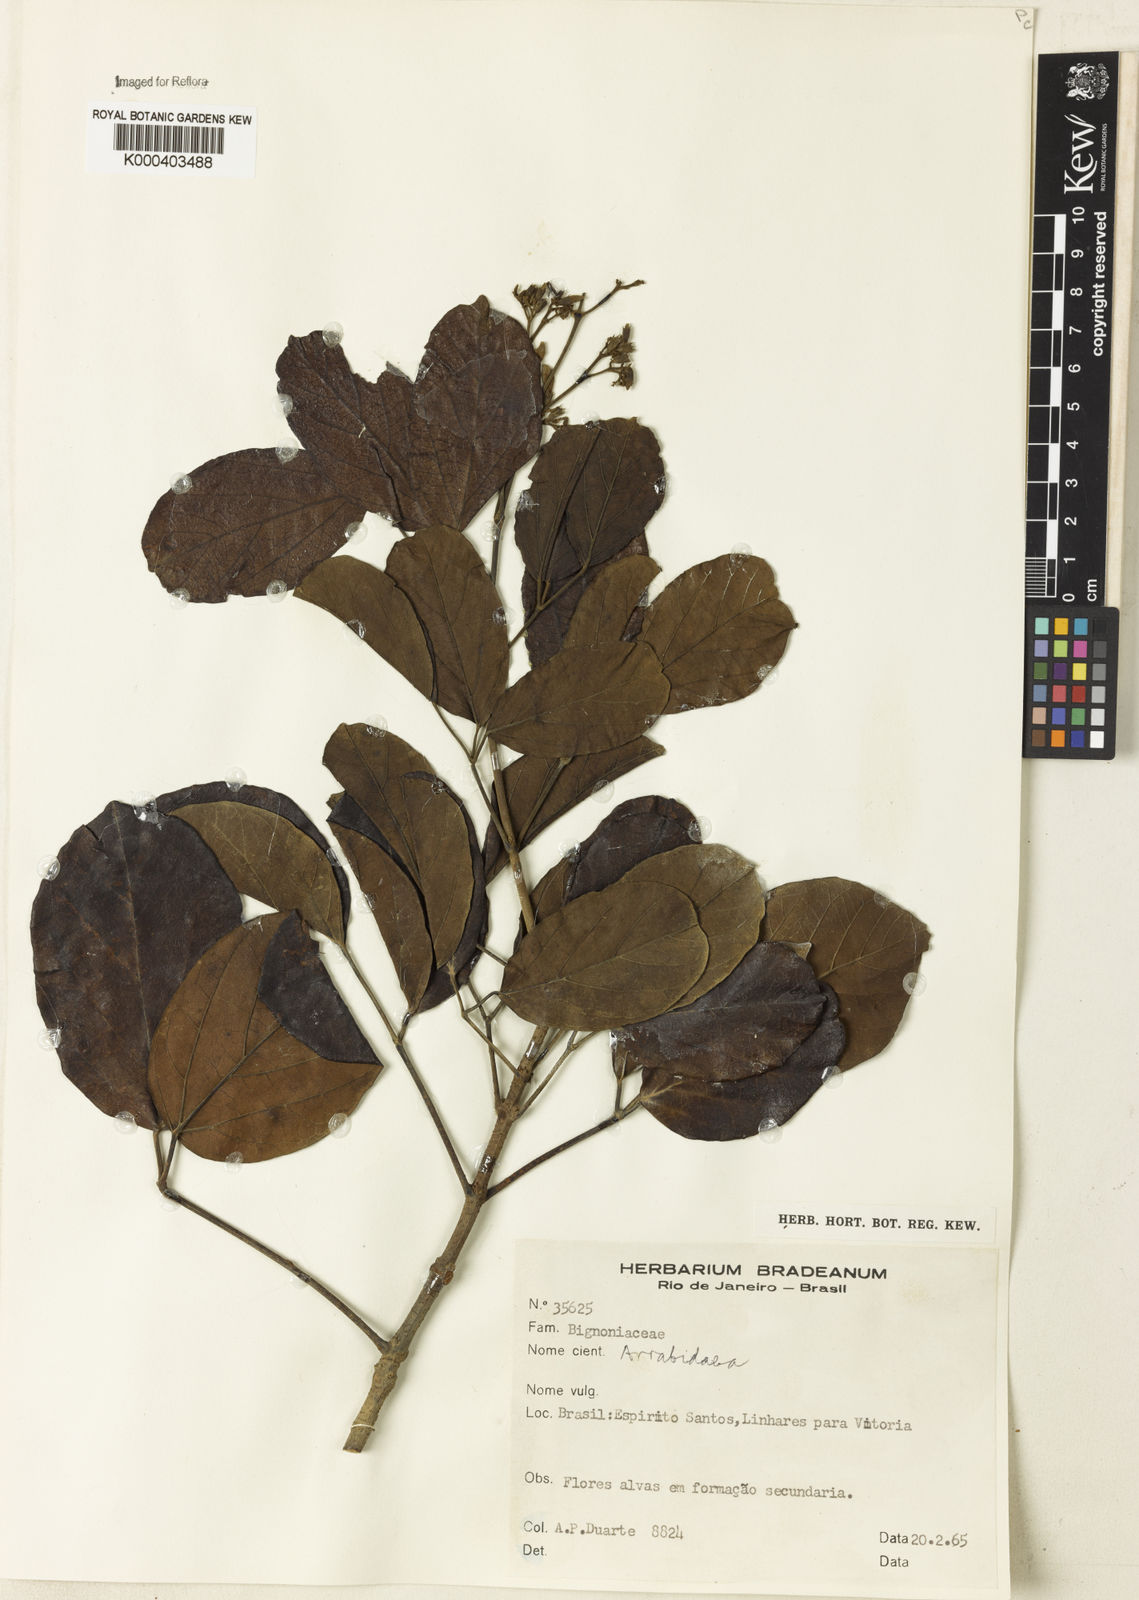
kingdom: Plantae
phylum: Tracheophyta
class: Magnoliopsida
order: Rosales
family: Rhamnaceae
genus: Arrabidaea
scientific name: Arrabidaea
